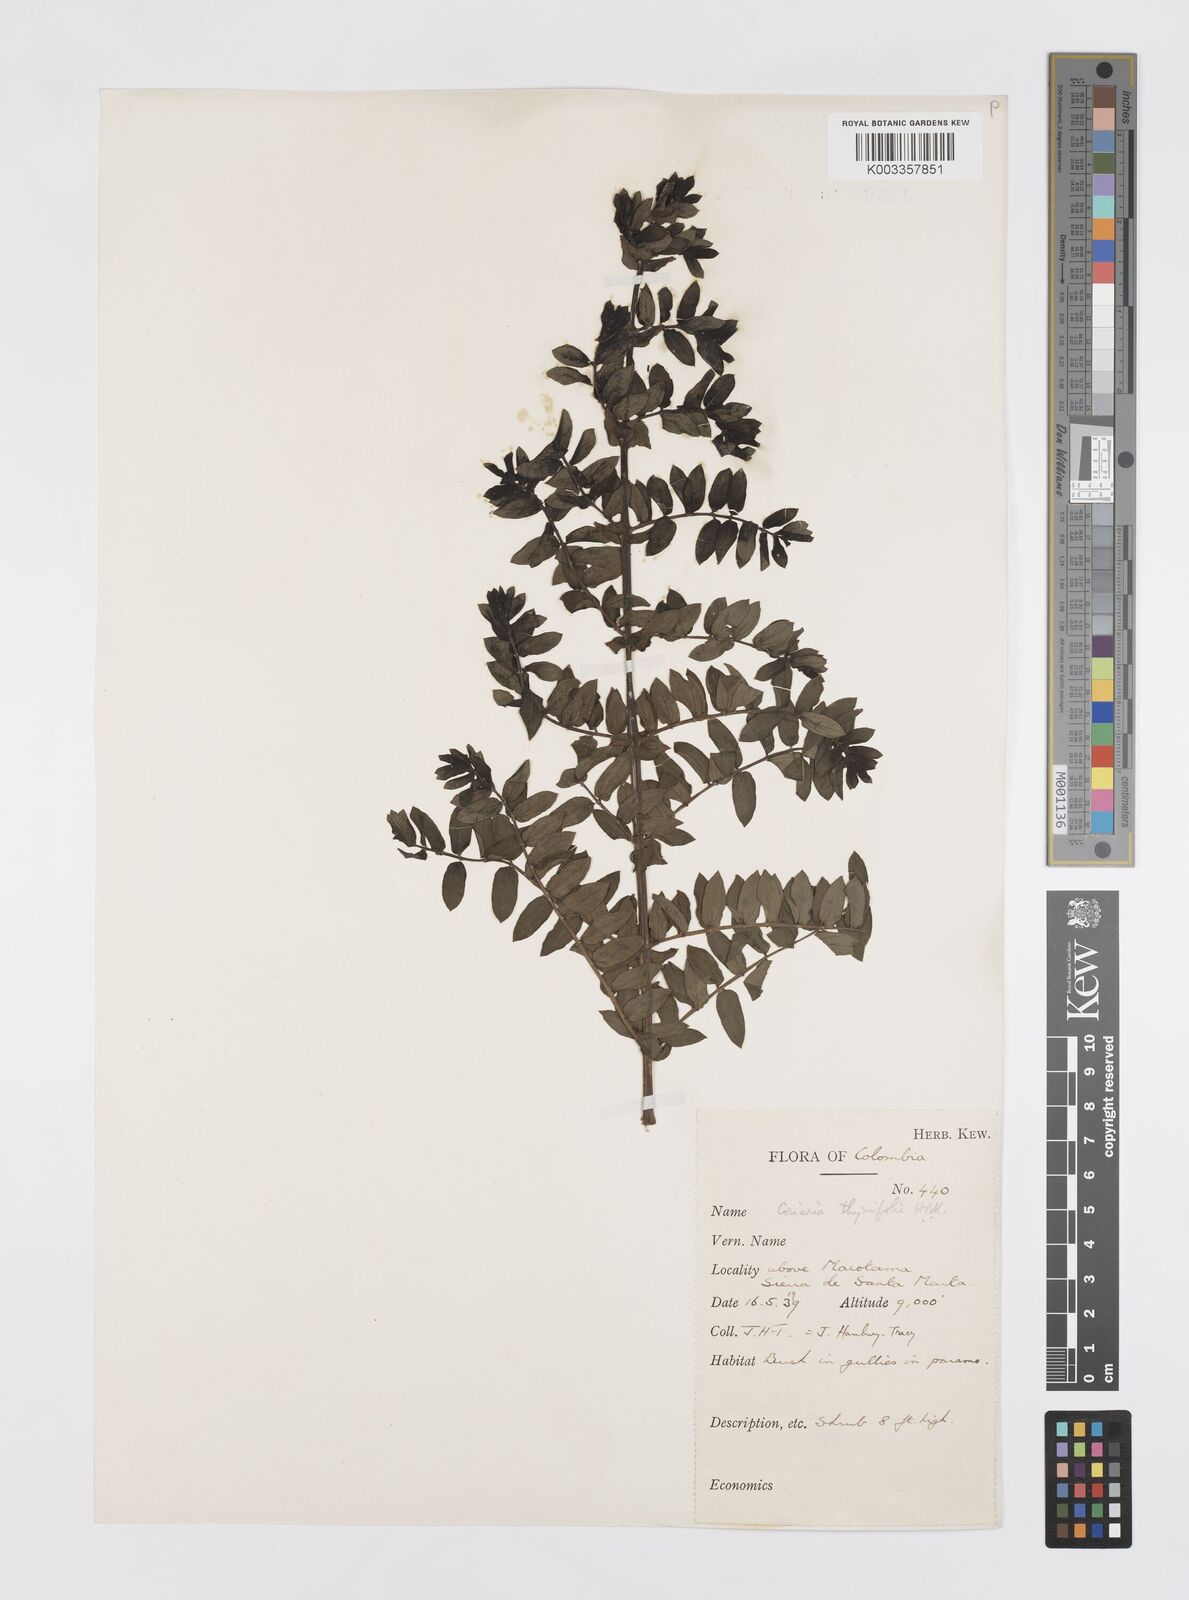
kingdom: Plantae
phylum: Tracheophyta
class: Magnoliopsida
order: Cucurbitales
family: Coriariaceae
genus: Coriaria
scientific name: Coriaria microphylla
